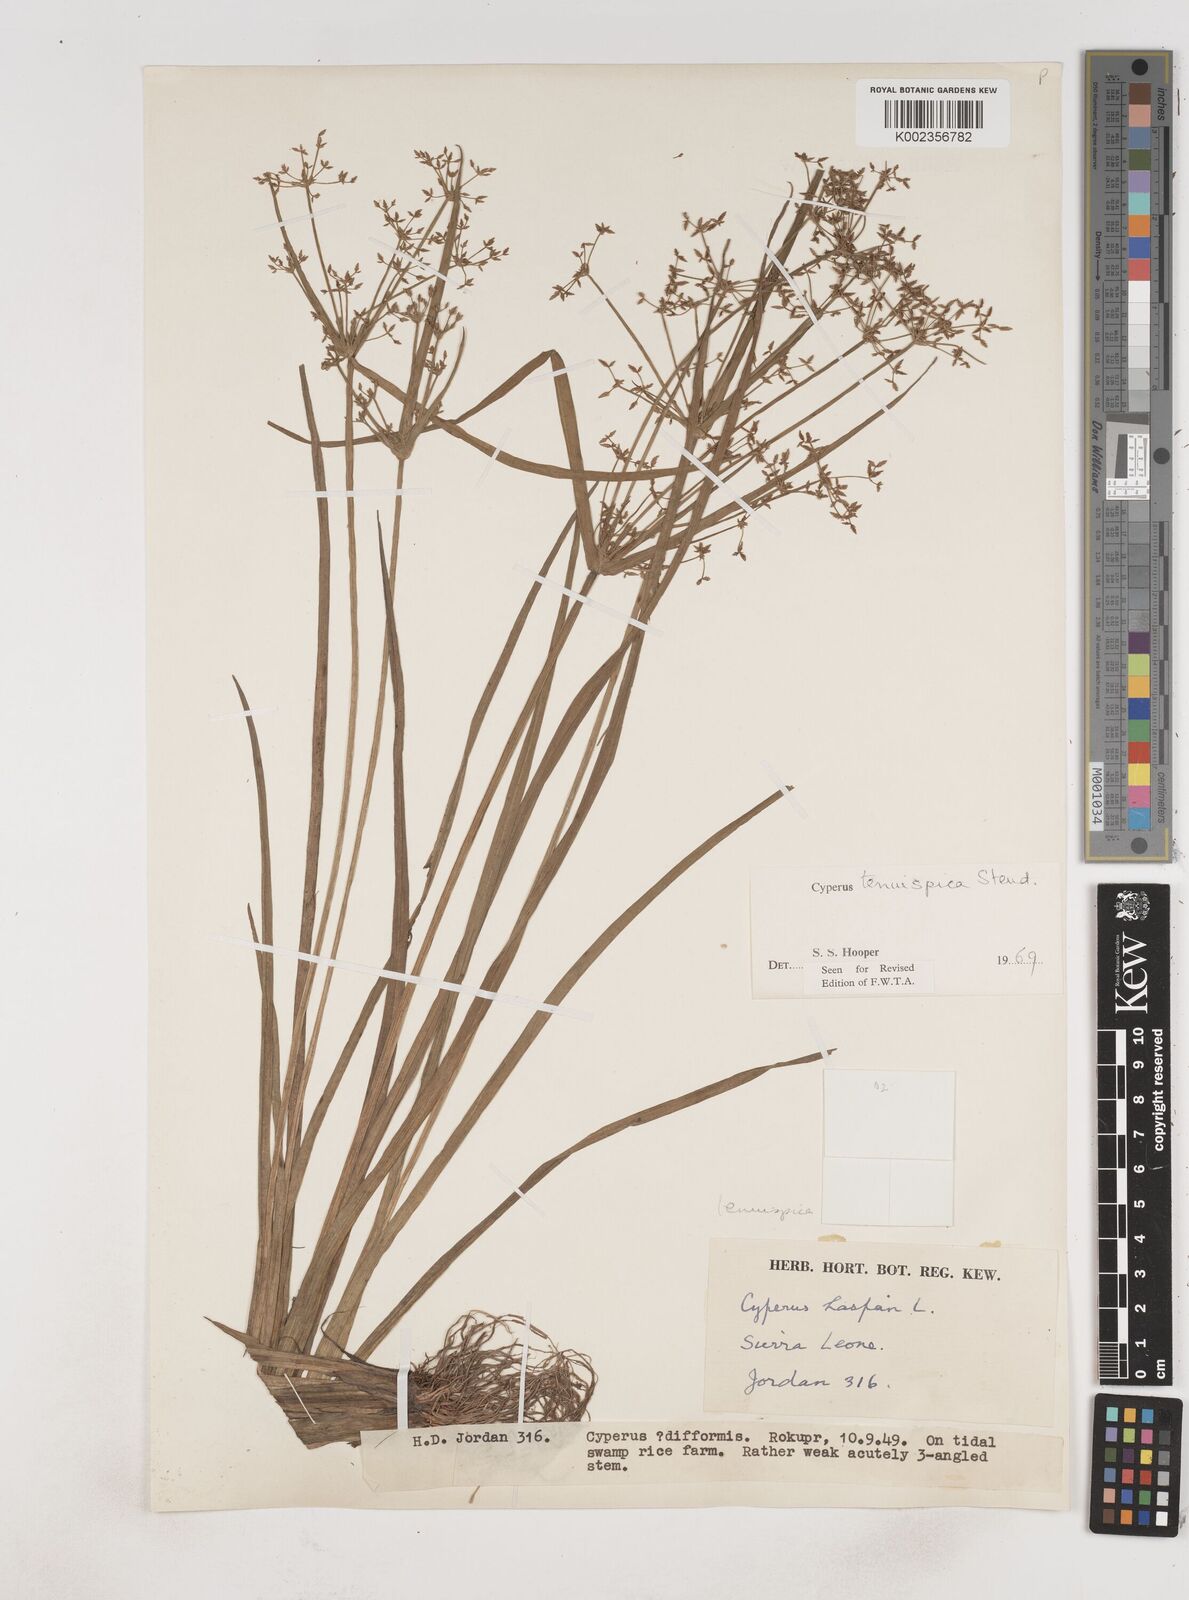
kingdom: Plantae
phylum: Tracheophyta
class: Liliopsida
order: Poales
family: Cyperaceae
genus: Cyperus
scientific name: Cyperus tenuispica
